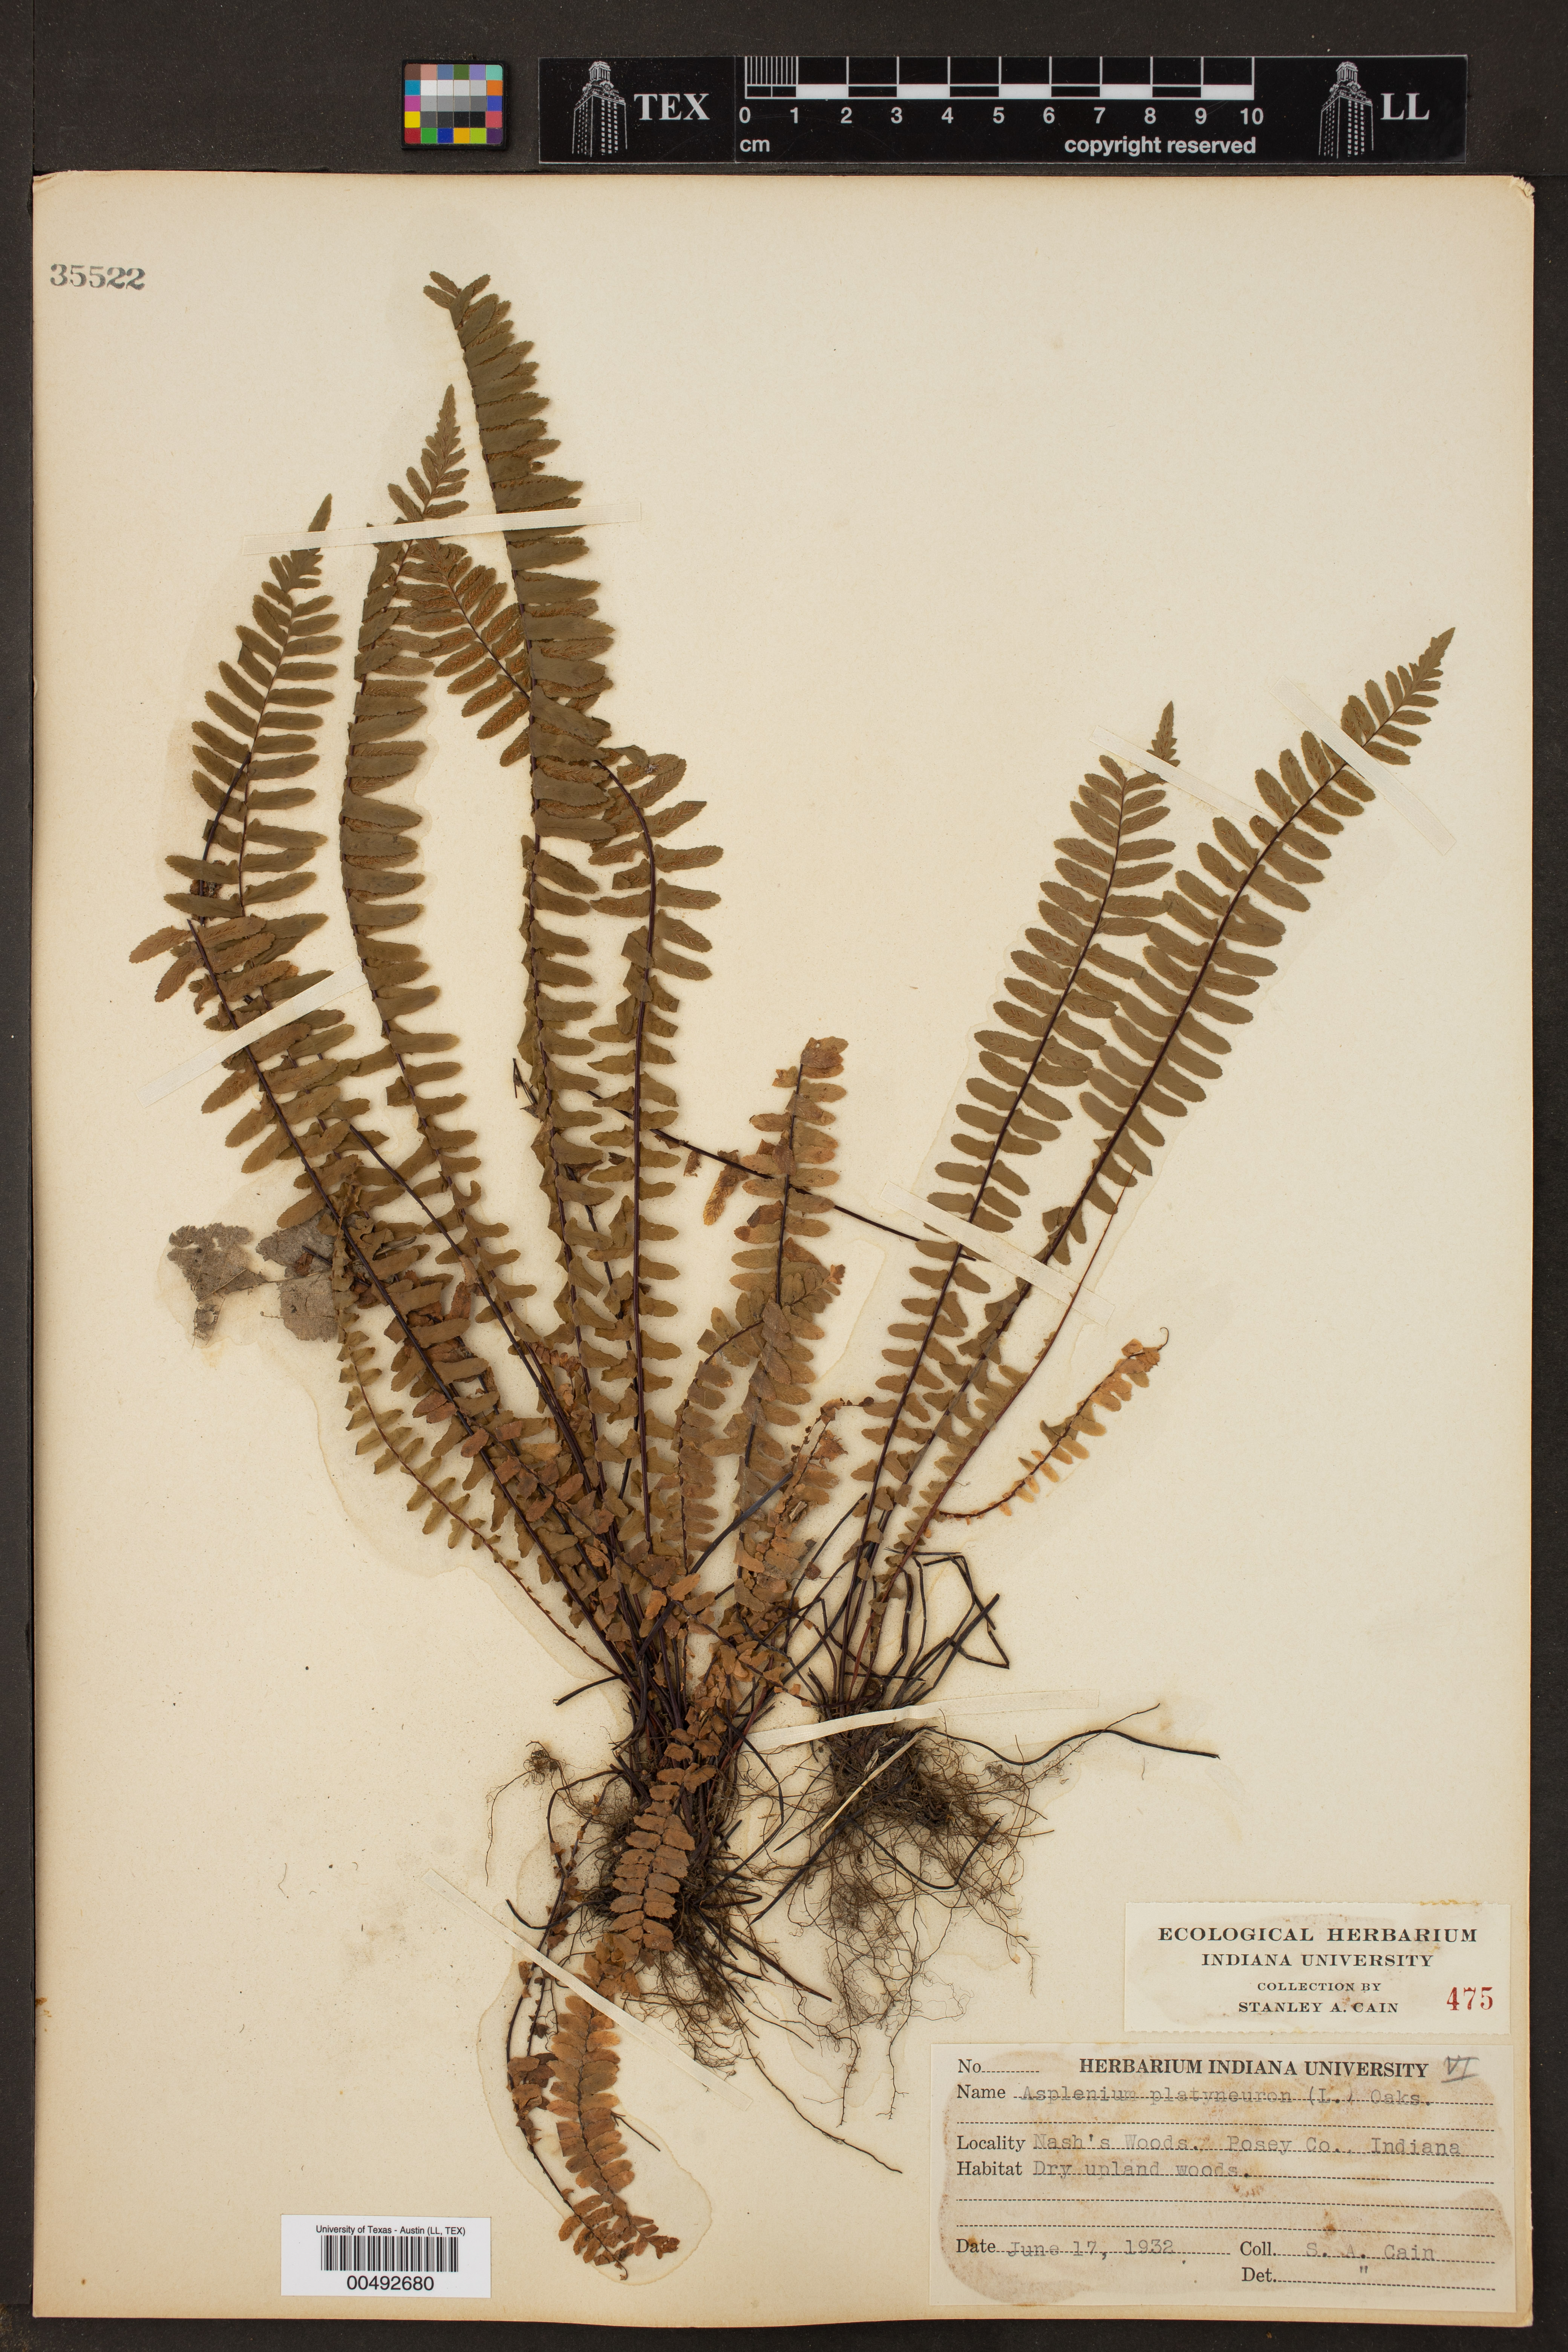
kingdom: Plantae
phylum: Tracheophyta
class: Polypodiopsida
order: Polypodiales
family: Aspleniaceae
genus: Asplenium
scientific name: Asplenium platyneuron
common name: Ebony spleenwort
